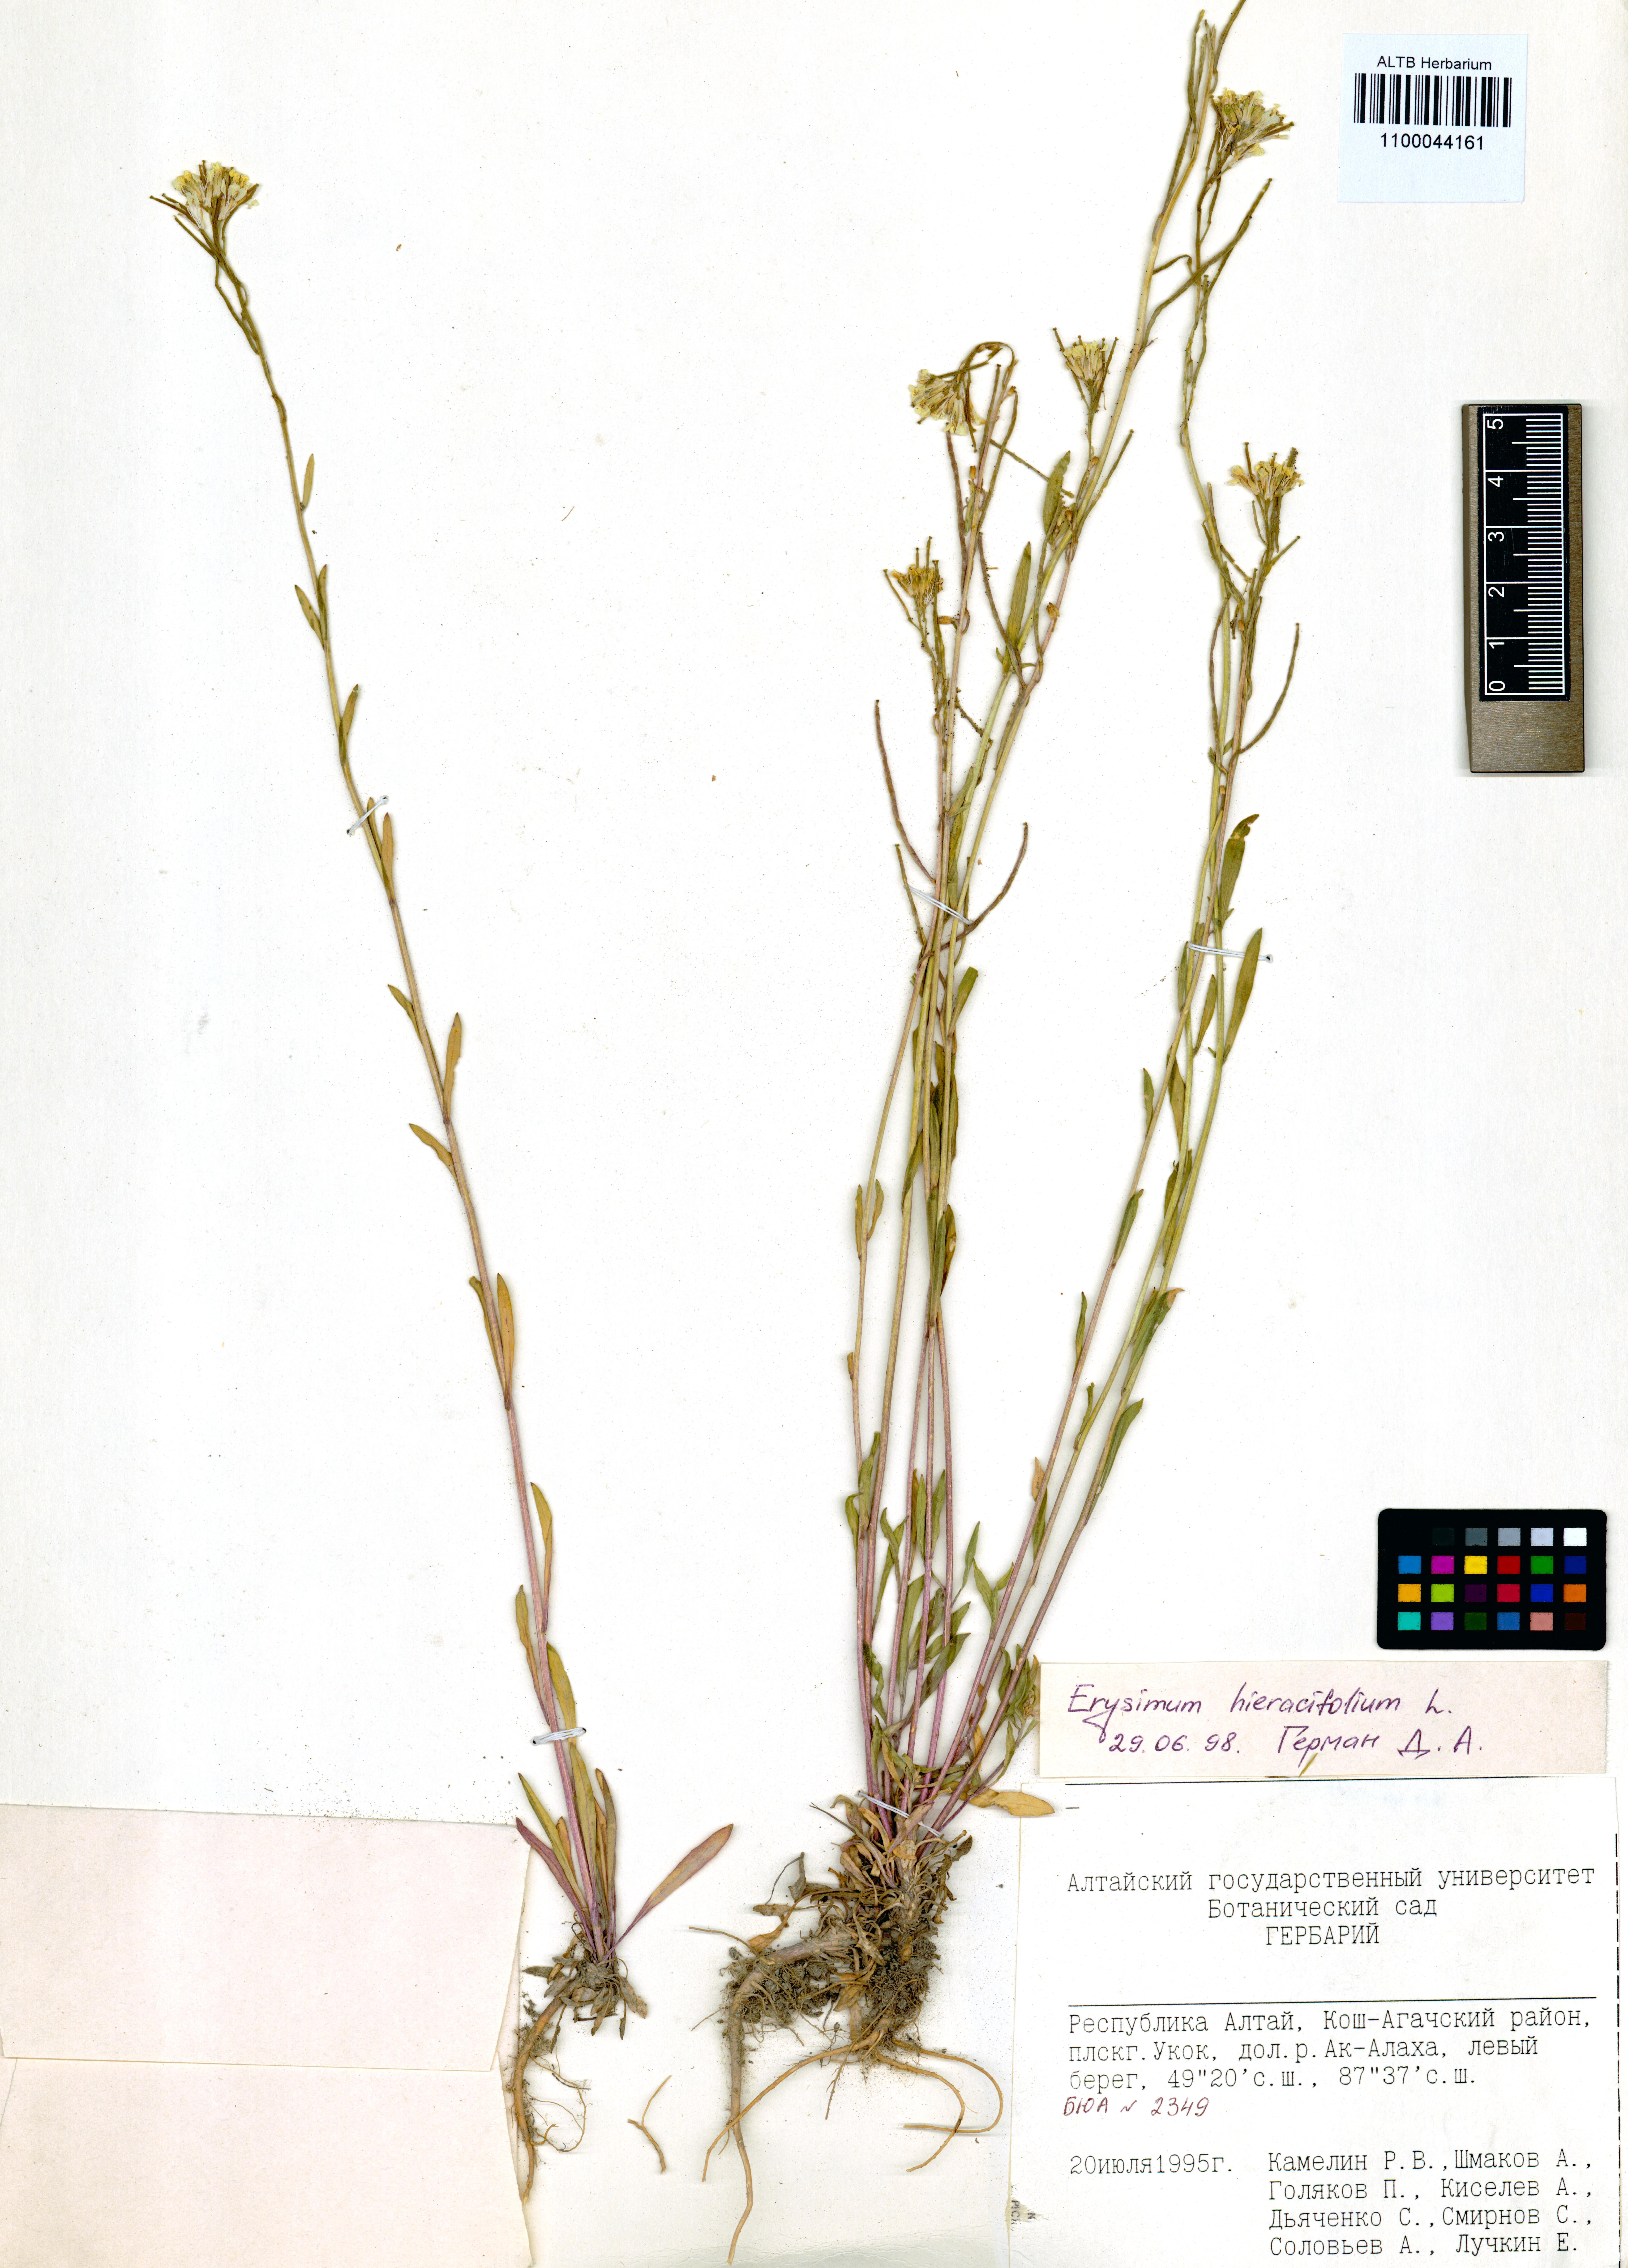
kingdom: Plantae
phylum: Tracheophyta
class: Magnoliopsida
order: Brassicales
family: Brassicaceae
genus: Erysimum
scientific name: Erysimum hieraciifolium
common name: European wallflower
